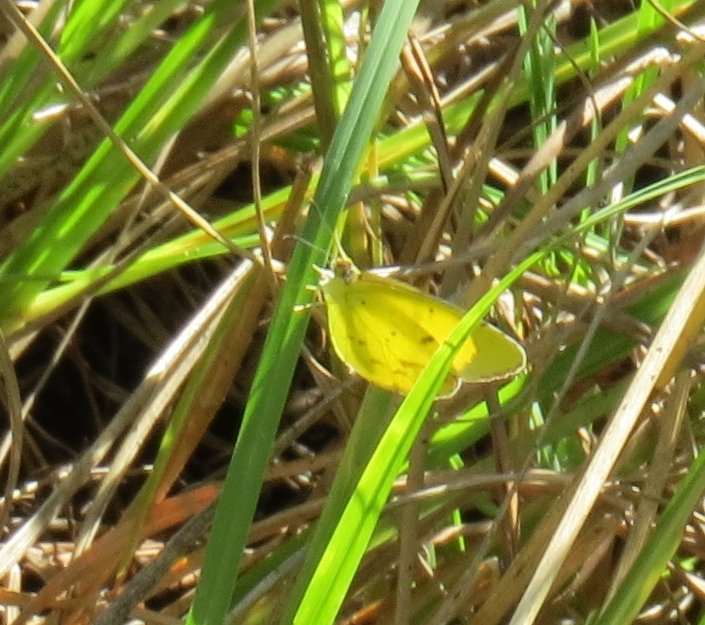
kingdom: Animalia
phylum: Arthropoda
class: Insecta
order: Lepidoptera
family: Pieridae
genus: Pyrisitia
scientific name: Pyrisitia lisa
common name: Little Yellow
